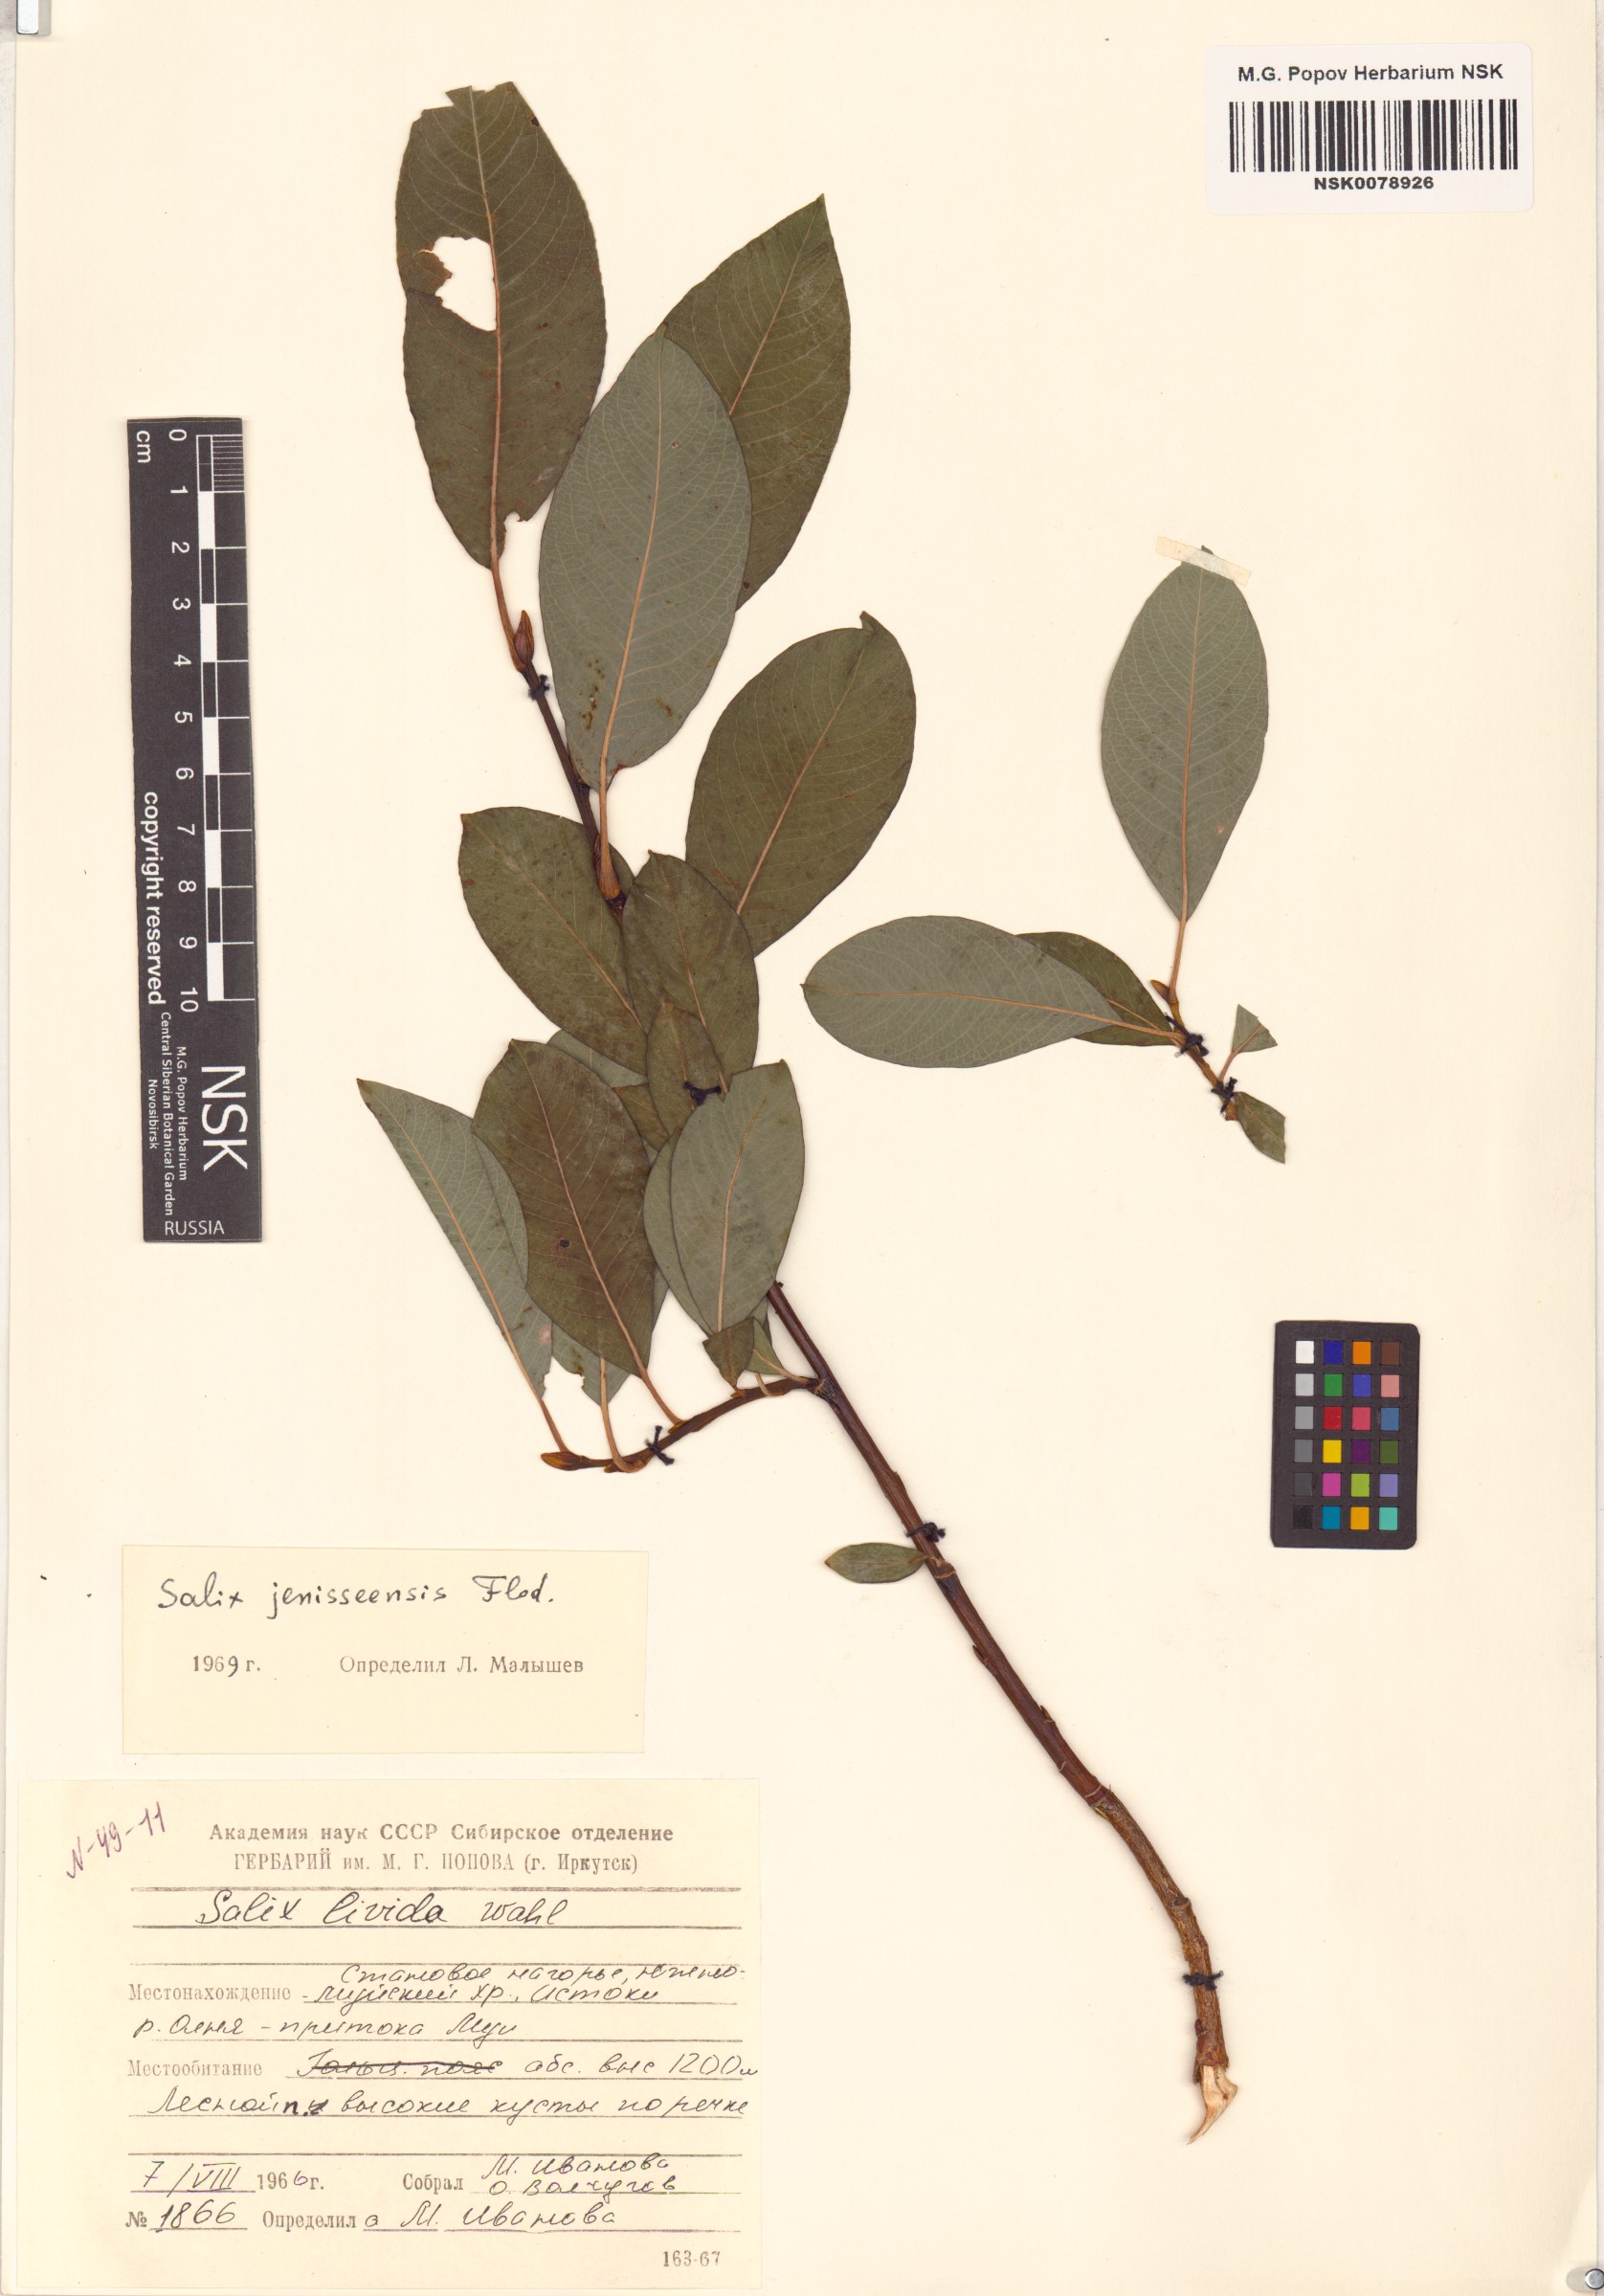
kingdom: Plantae
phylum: Tracheophyta
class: Magnoliopsida
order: Malpighiales
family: Salicaceae
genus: Salix
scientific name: Salix jenisseensis
